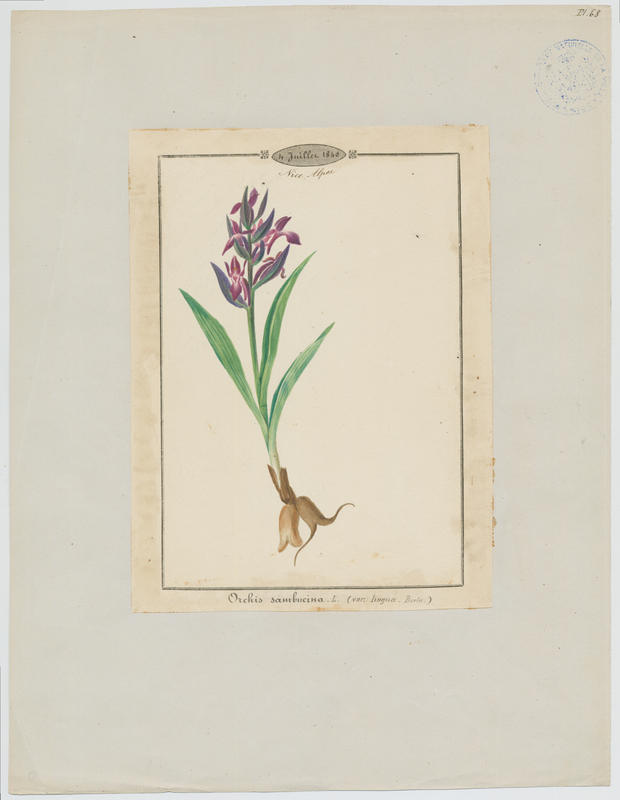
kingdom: Plantae
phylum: Tracheophyta
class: Liliopsida
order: Asparagales
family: Orchidaceae
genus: Dactylorhiza
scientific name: Dactylorhiza sambucina
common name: Elder-flowered orchid
